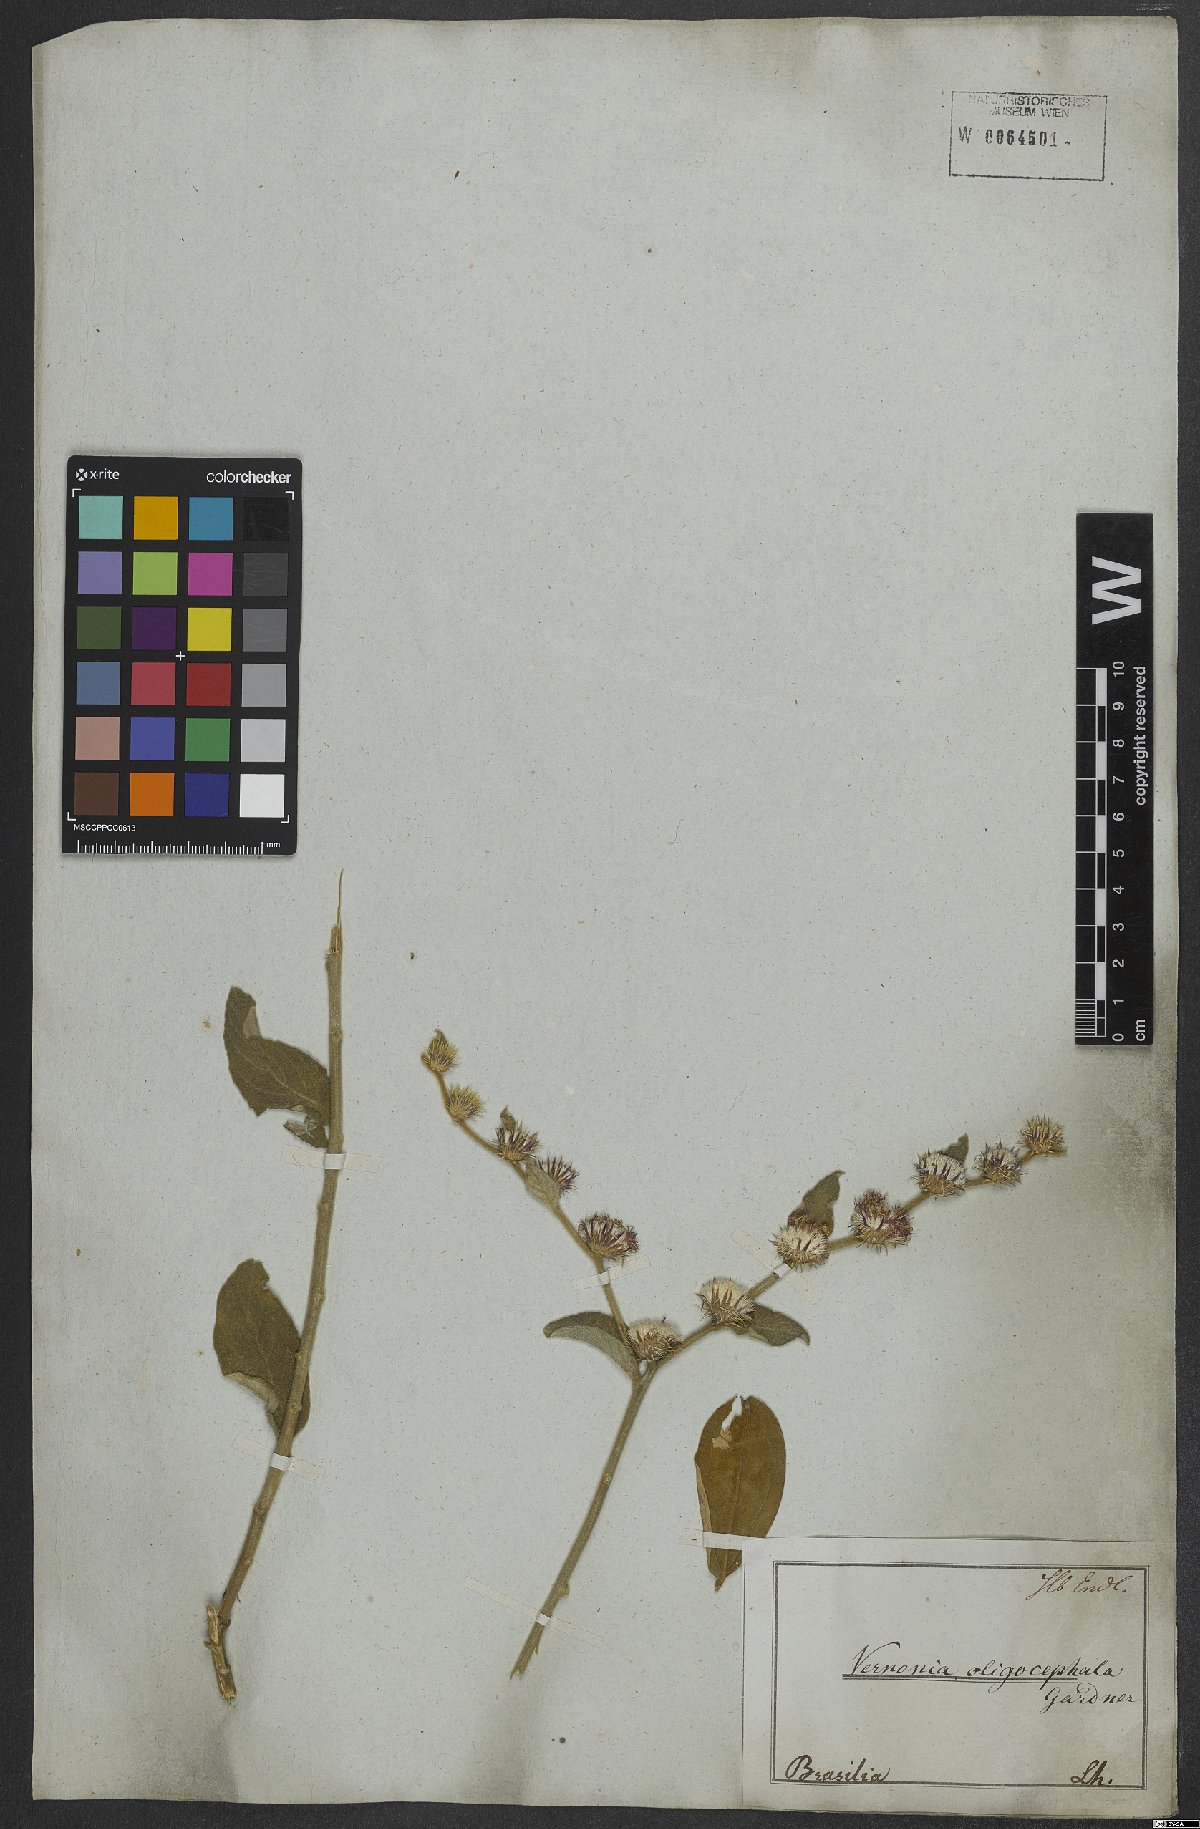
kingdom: Plantae
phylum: Tracheophyta
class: Magnoliopsida
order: Asterales
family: Asteraceae
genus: Lepidaploa
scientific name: Lepidaploa aurea
